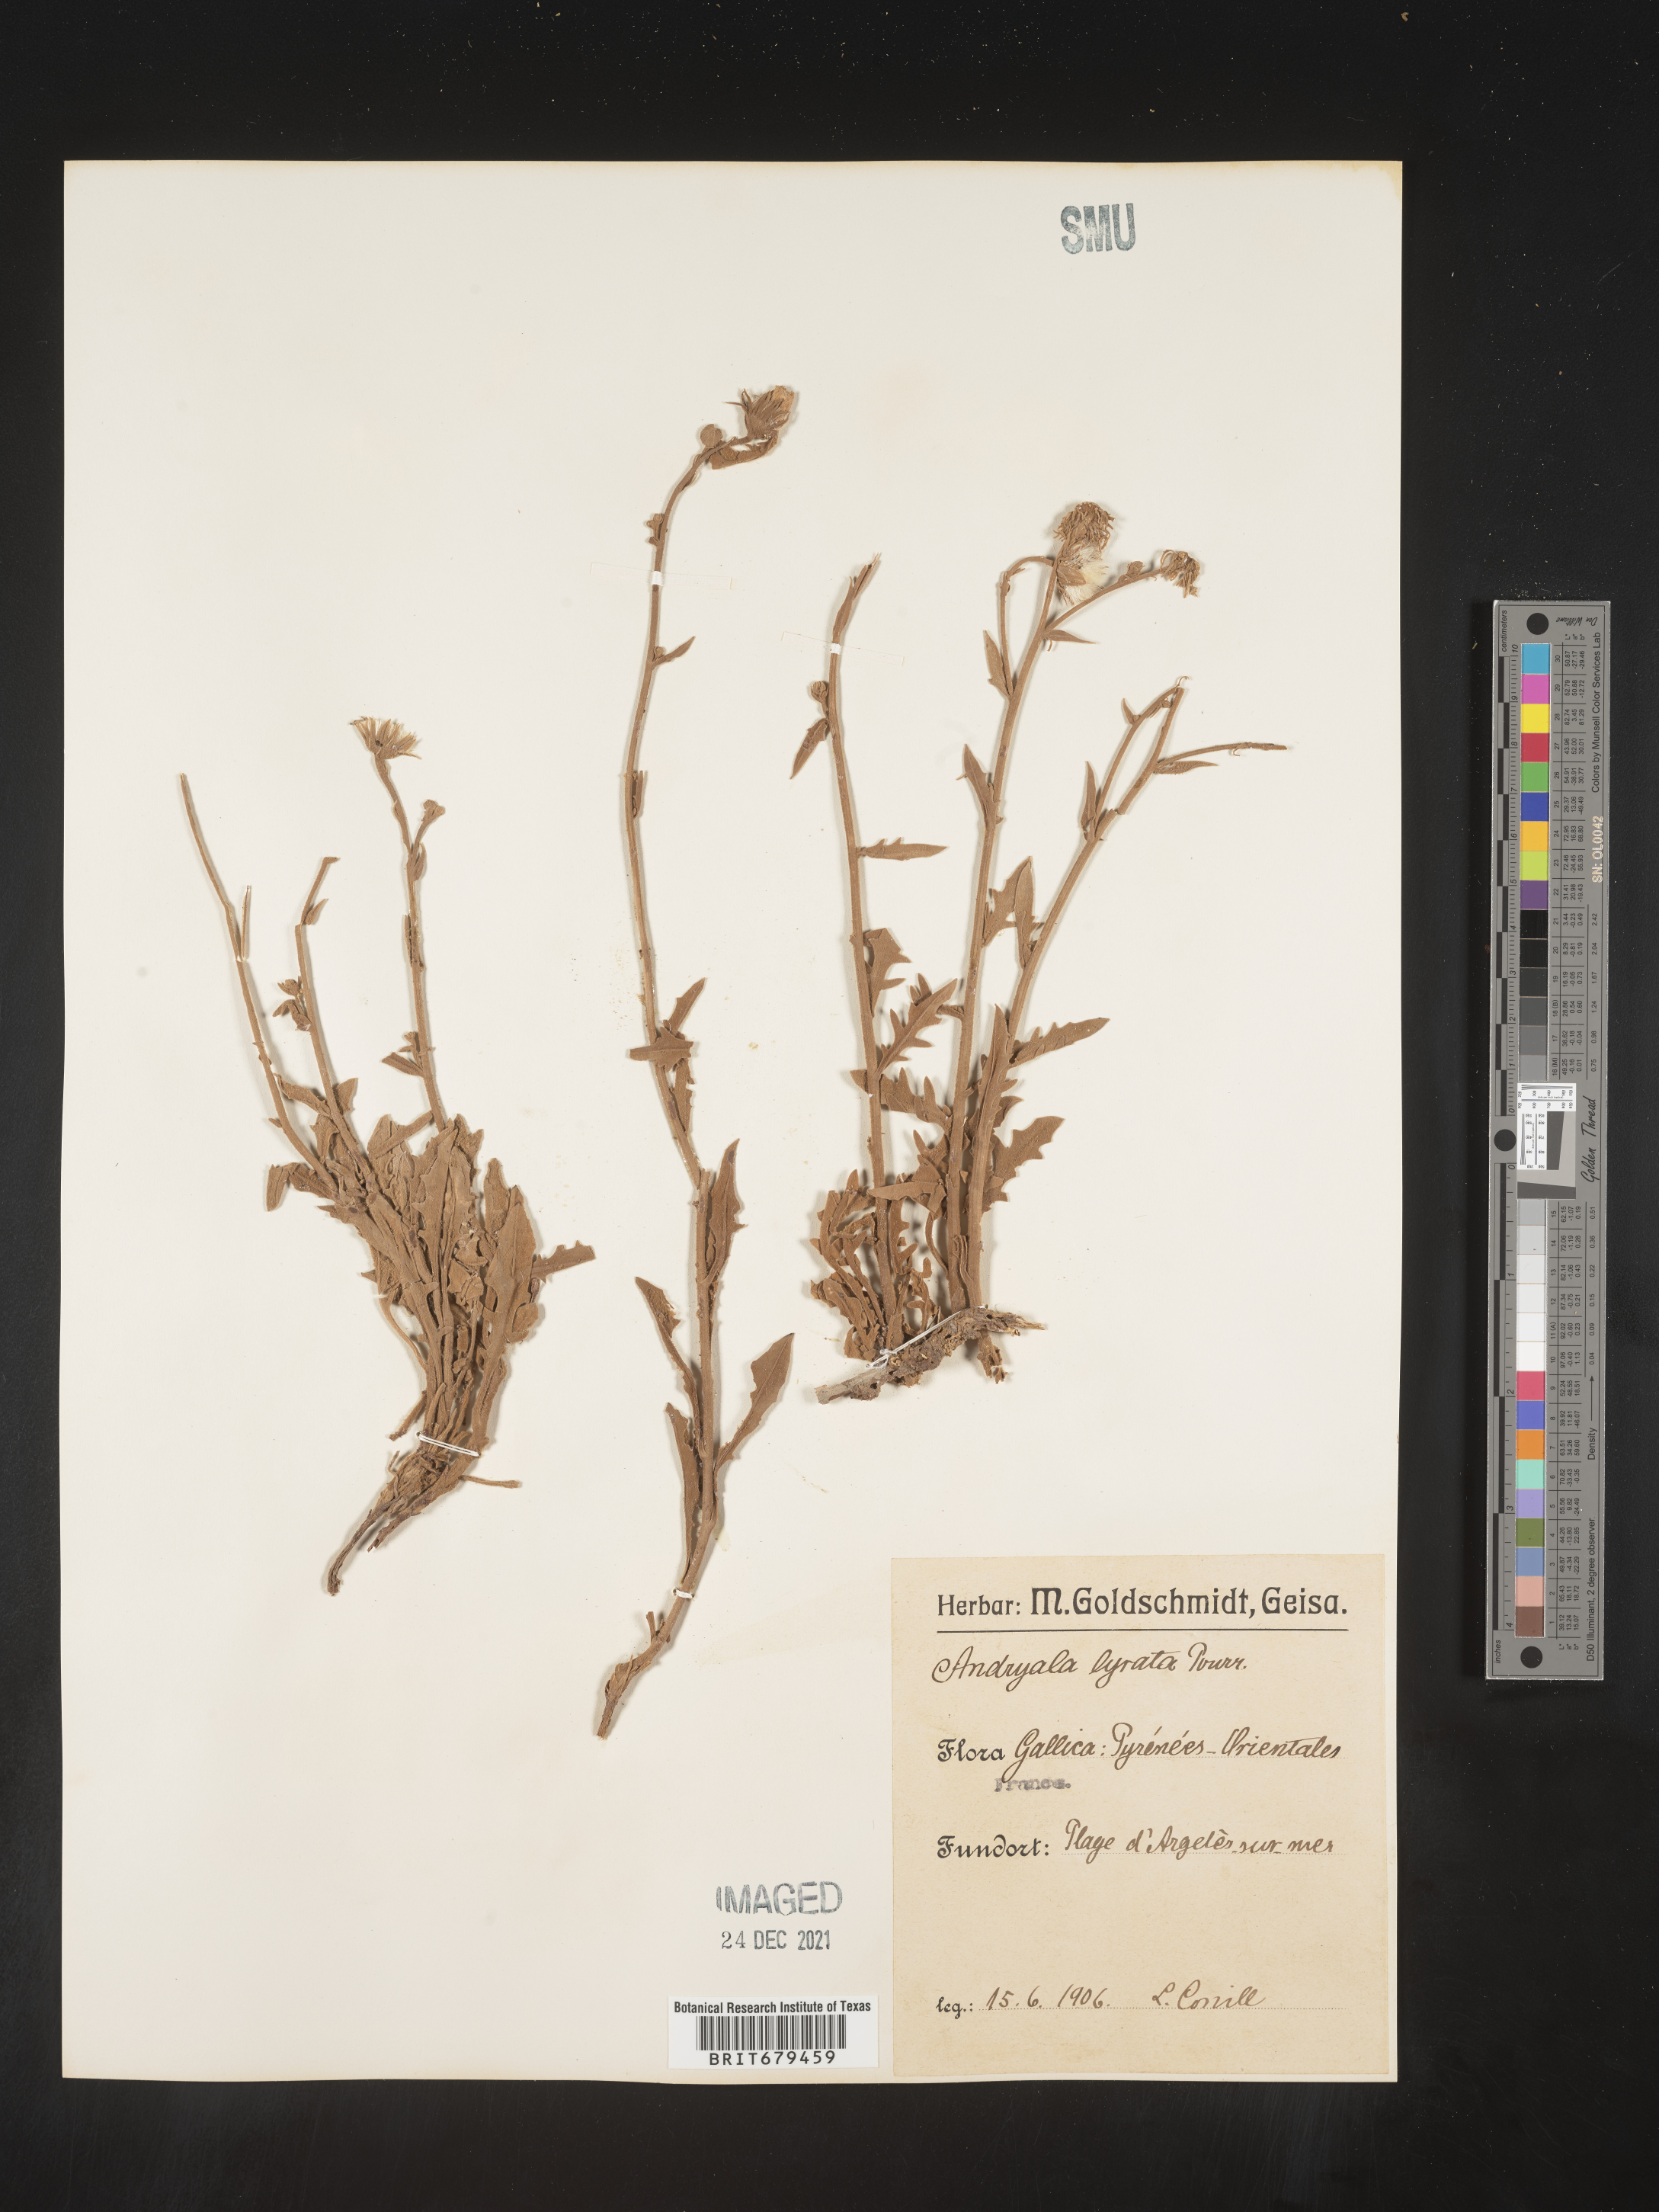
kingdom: Plantae
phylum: Tracheophyta
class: Magnoliopsida
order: Asterales
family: Asteraceae
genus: Andryala
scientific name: Andryala
